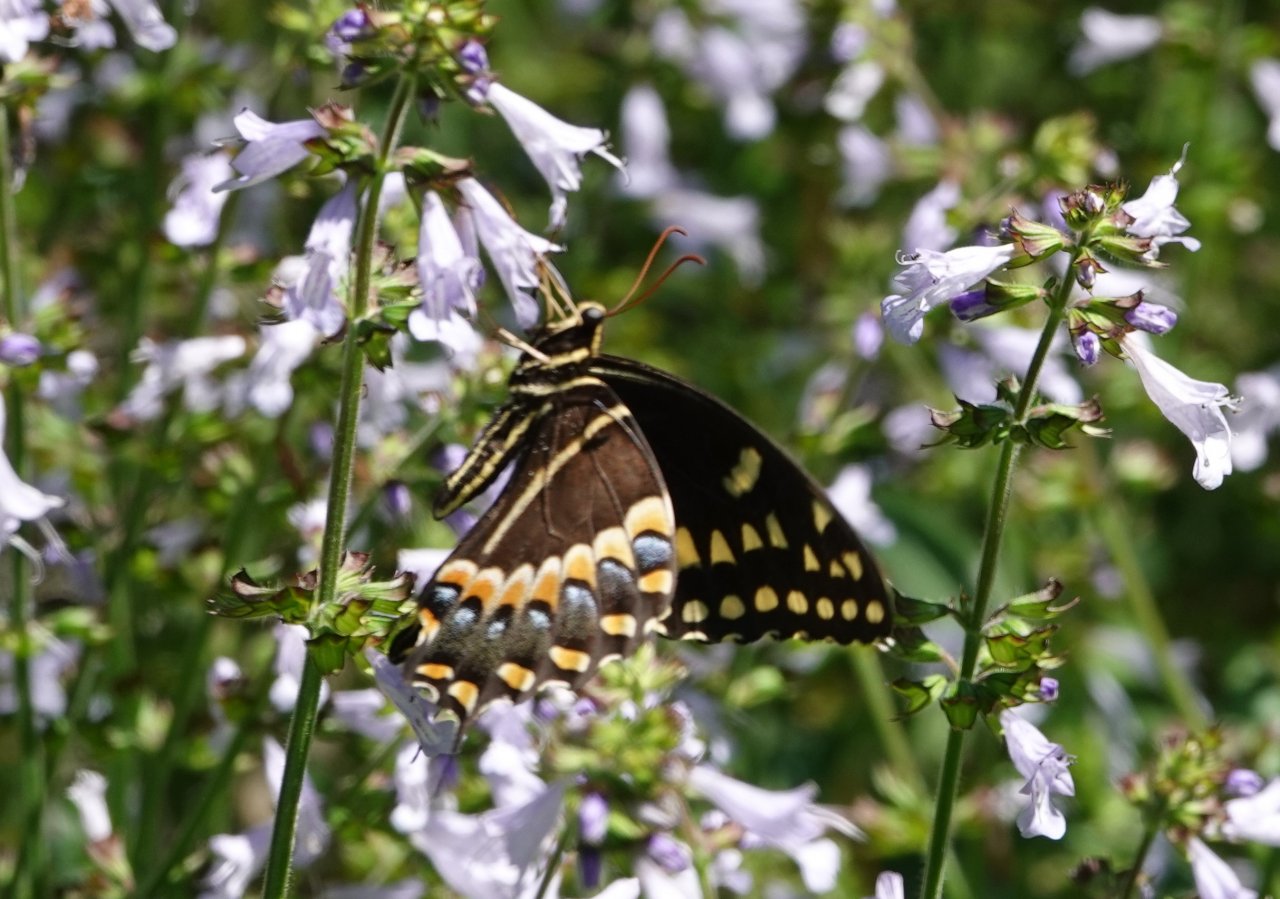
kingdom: Animalia
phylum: Arthropoda
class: Insecta
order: Lepidoptera
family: Papilionidae
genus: Pterourus
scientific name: Pterourus palamedes
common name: Palamedes Swallowtail
